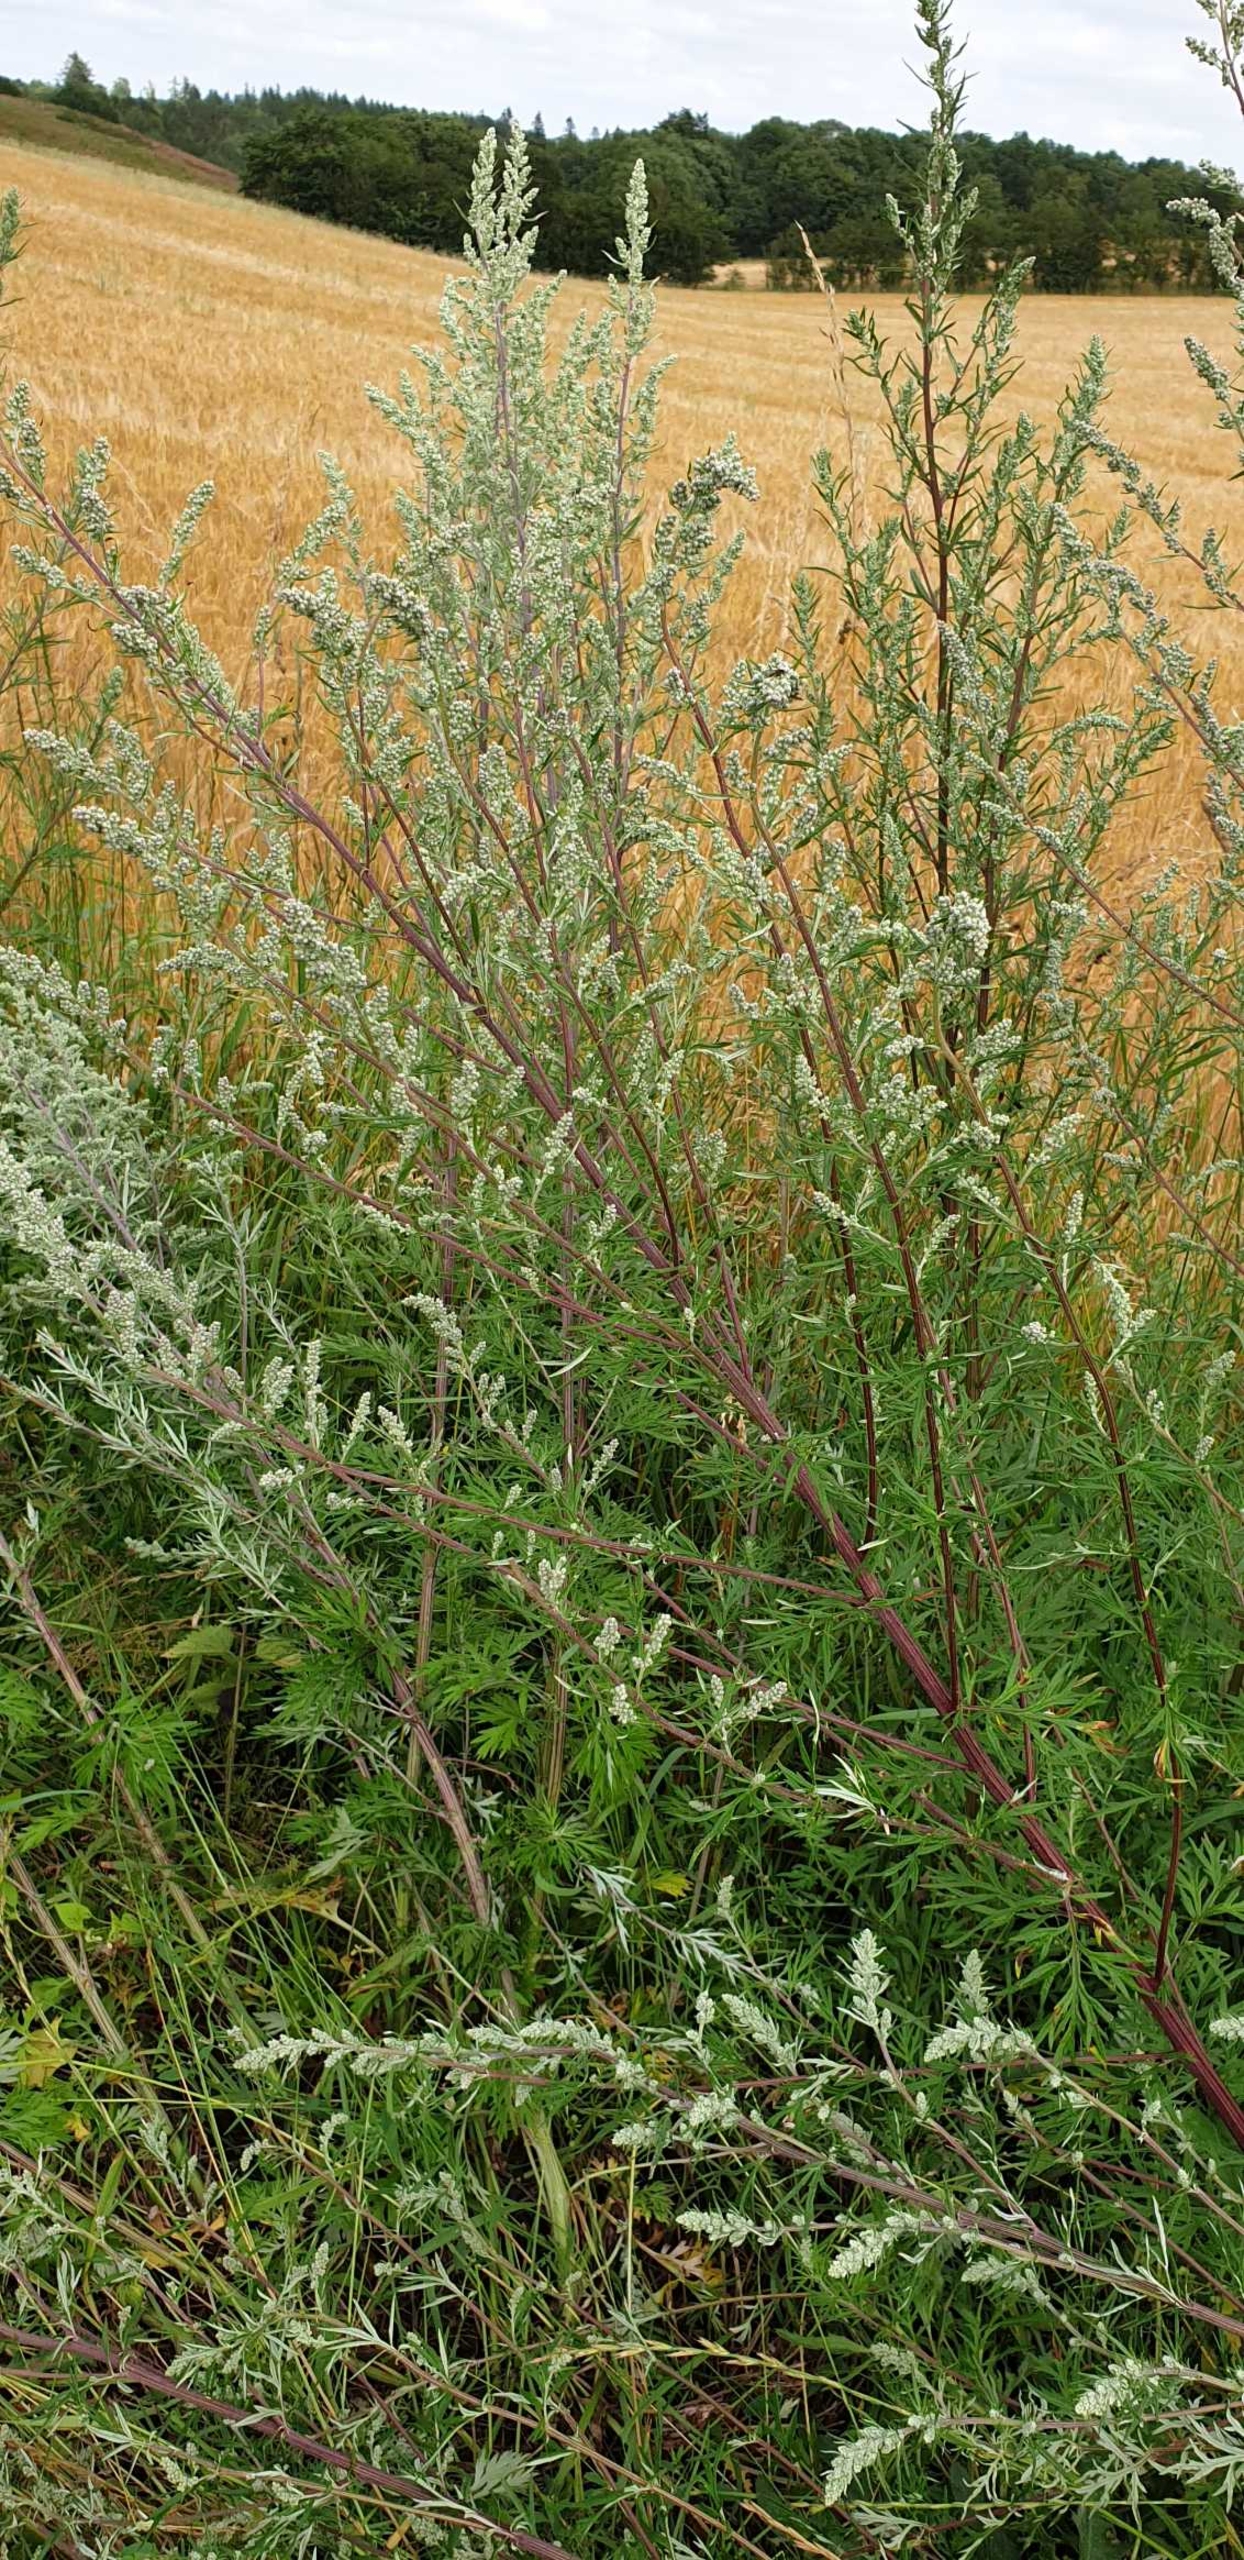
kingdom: Plantae
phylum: Tracheophyta
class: Magnoliopsida
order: Asterales
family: Asteraceae
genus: Artemisia
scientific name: Artemisia vulgaris
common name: Grå-bynke
